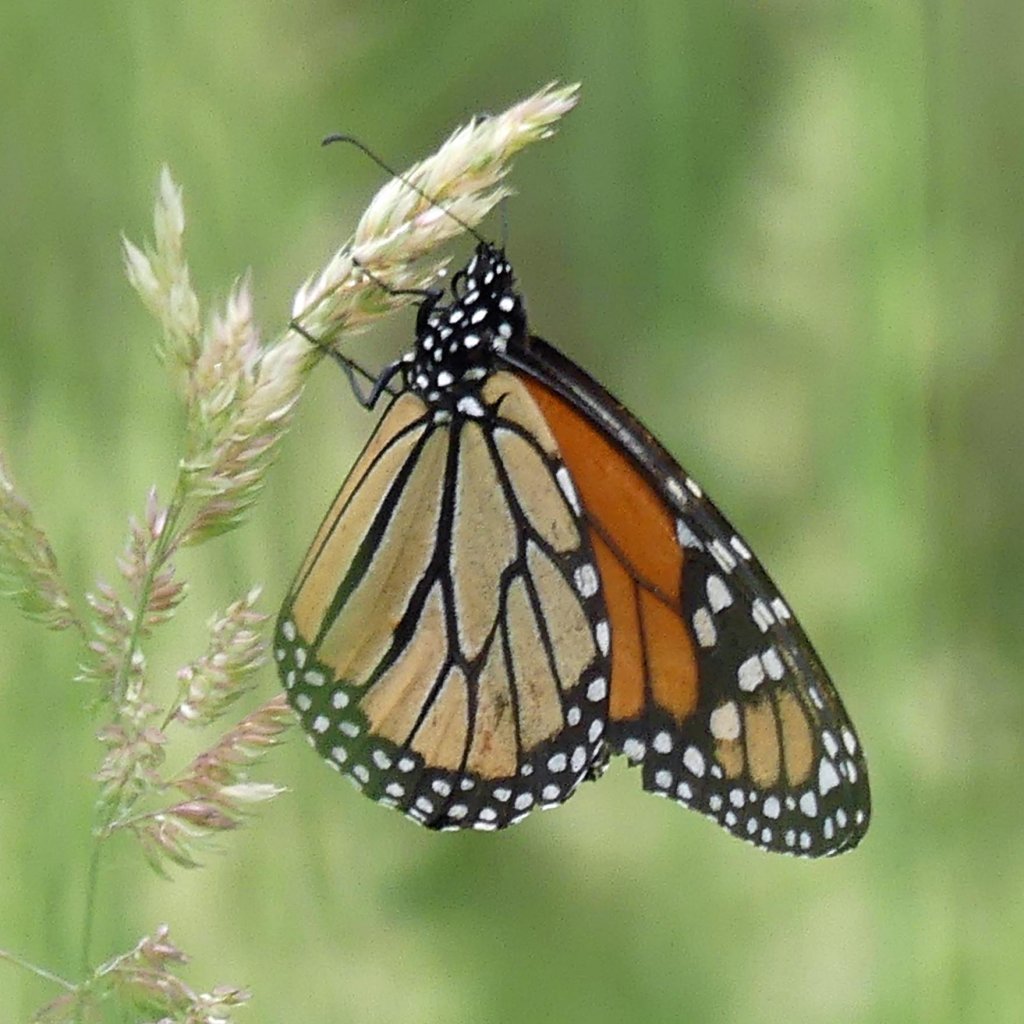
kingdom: Animalia
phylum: Arthropoda
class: Insecta
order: Lepidoptera
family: Nymphalidae
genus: Danaus
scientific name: Danaus plexippus
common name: Monarch
